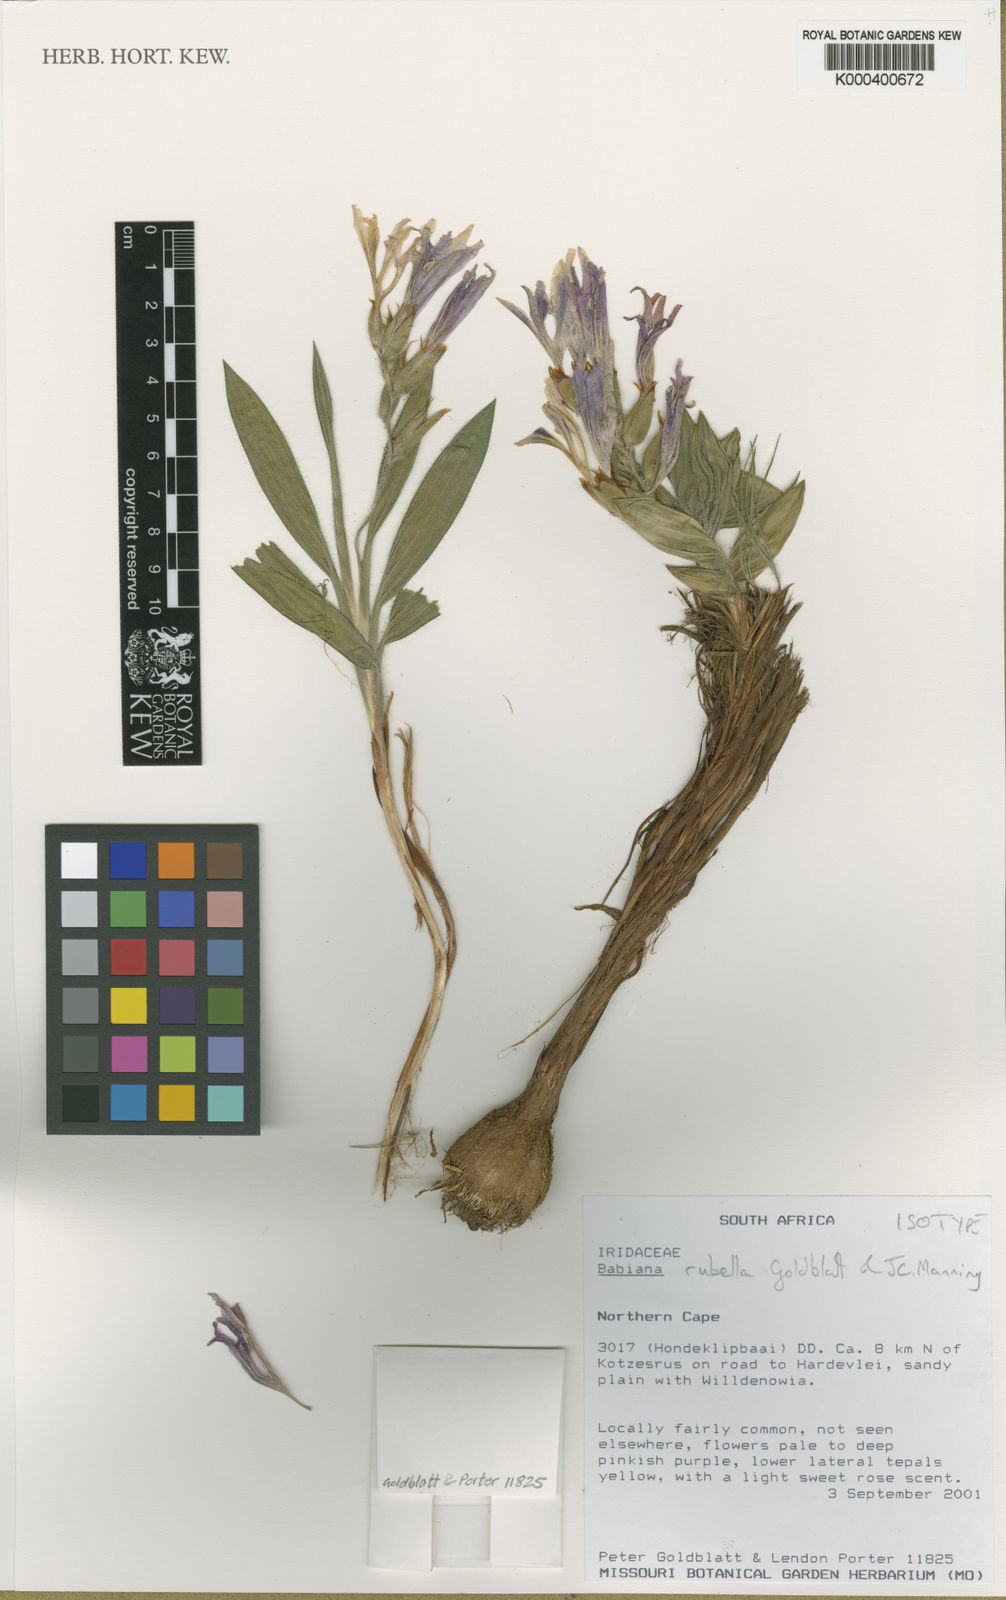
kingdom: Plantae
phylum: Tracheophyta
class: Liliopsida
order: Asparagales
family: Iridaceae
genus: Babiana
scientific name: Babiana rubella
